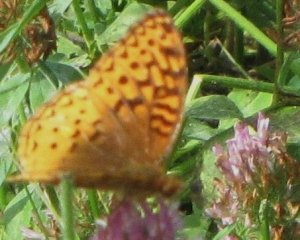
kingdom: Animalia
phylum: Arthropoda
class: Insecta
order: Lepidoptera
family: Nymphalidae
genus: Speyeria
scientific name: Speyeria cybele
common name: Great Spangled Fritillary
